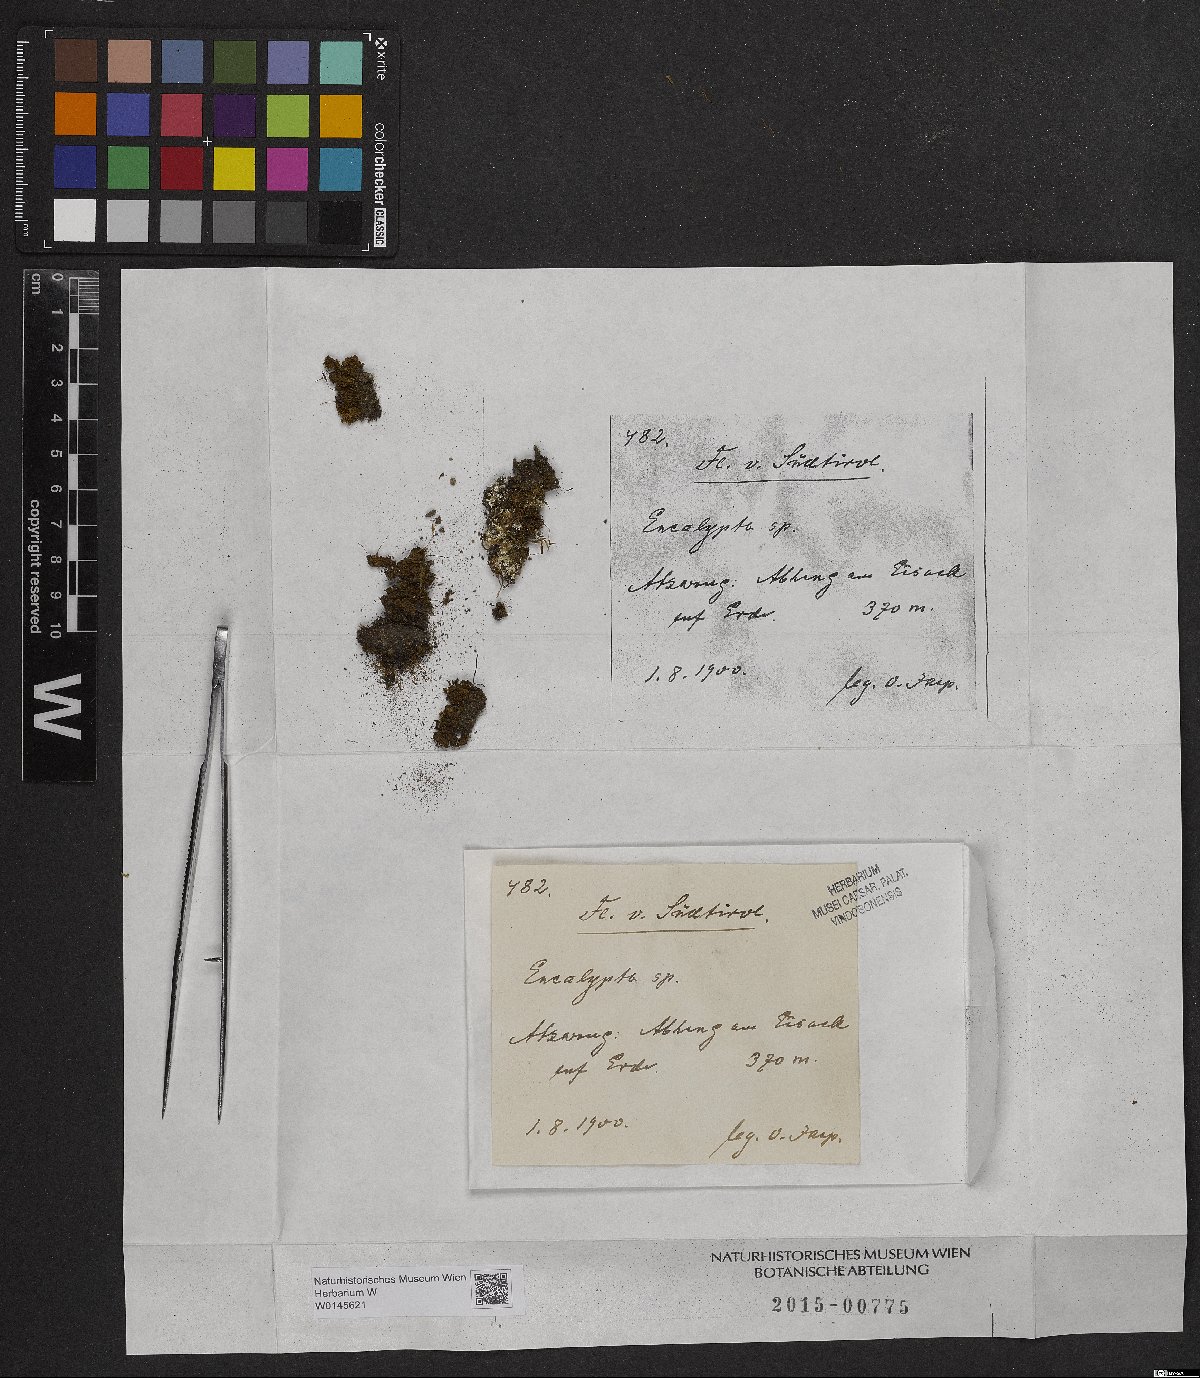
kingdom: Plantae
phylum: Bryophyta
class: Bryopsida
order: Encalyptales
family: Encalyptaceae
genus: Encalypta
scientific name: Encalypta
